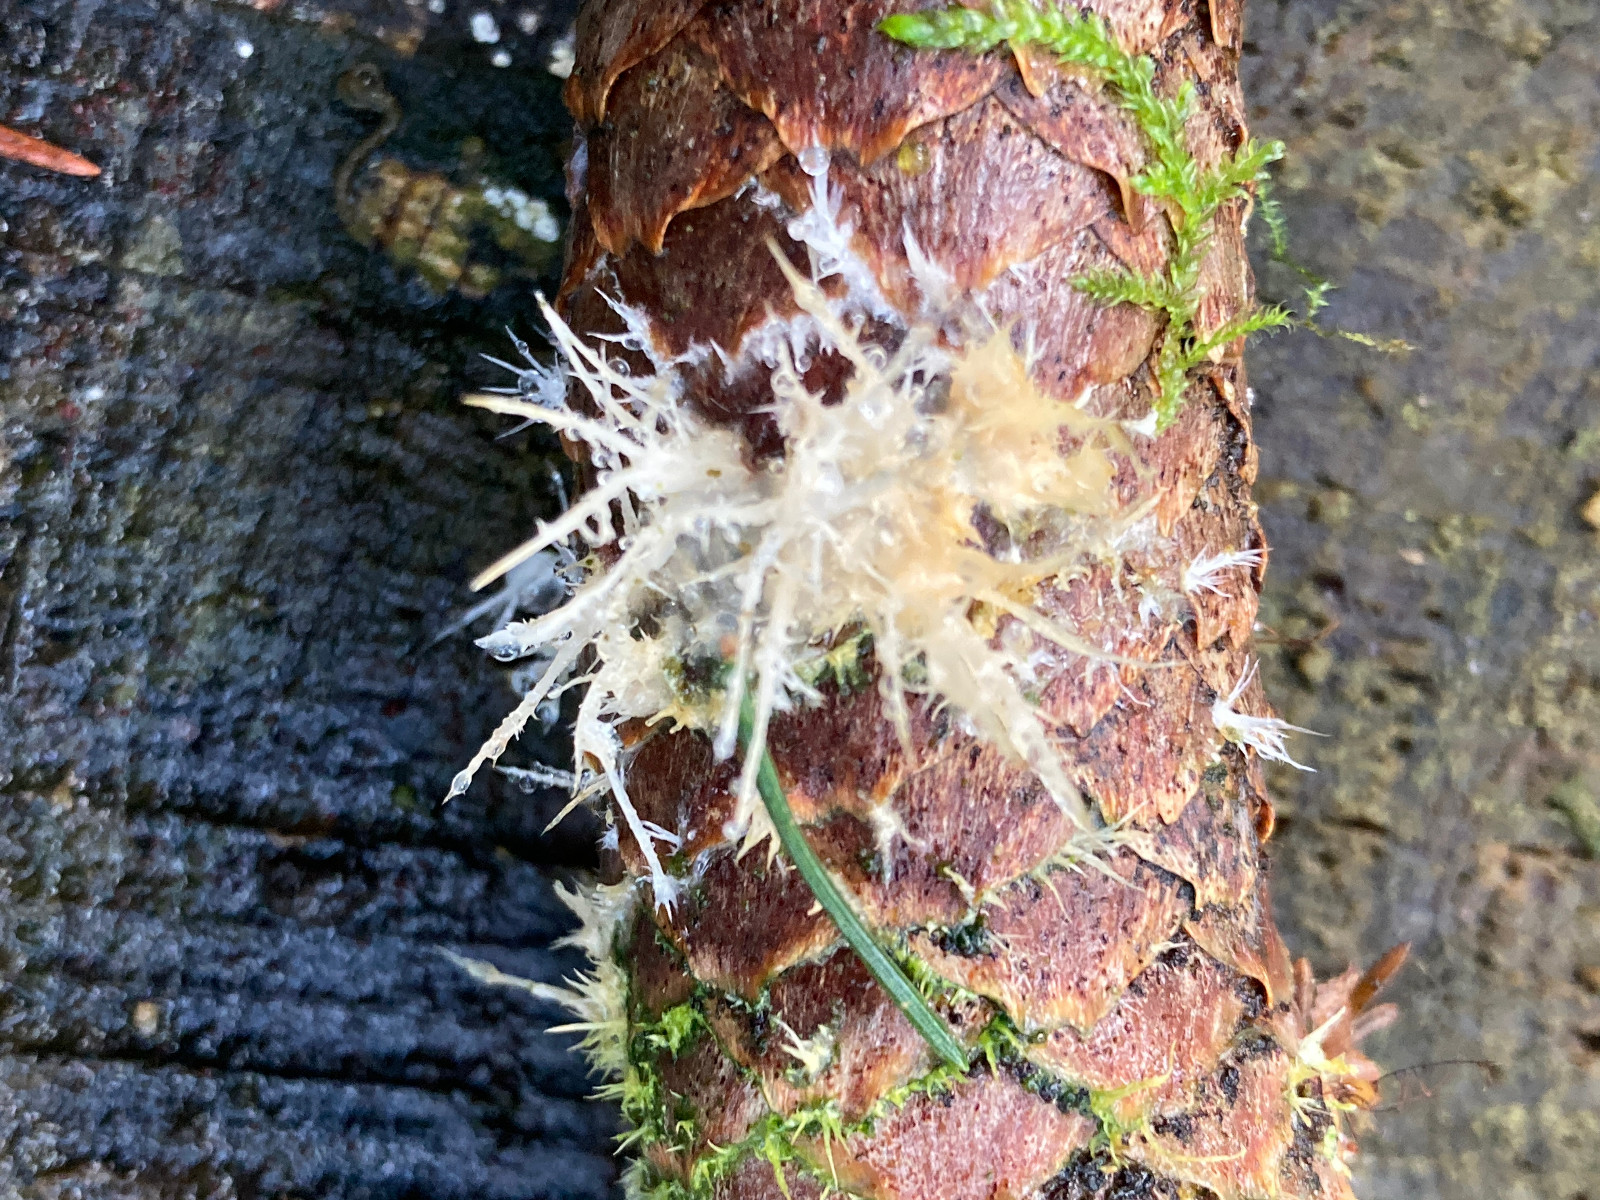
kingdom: Fungi
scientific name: Fungi
